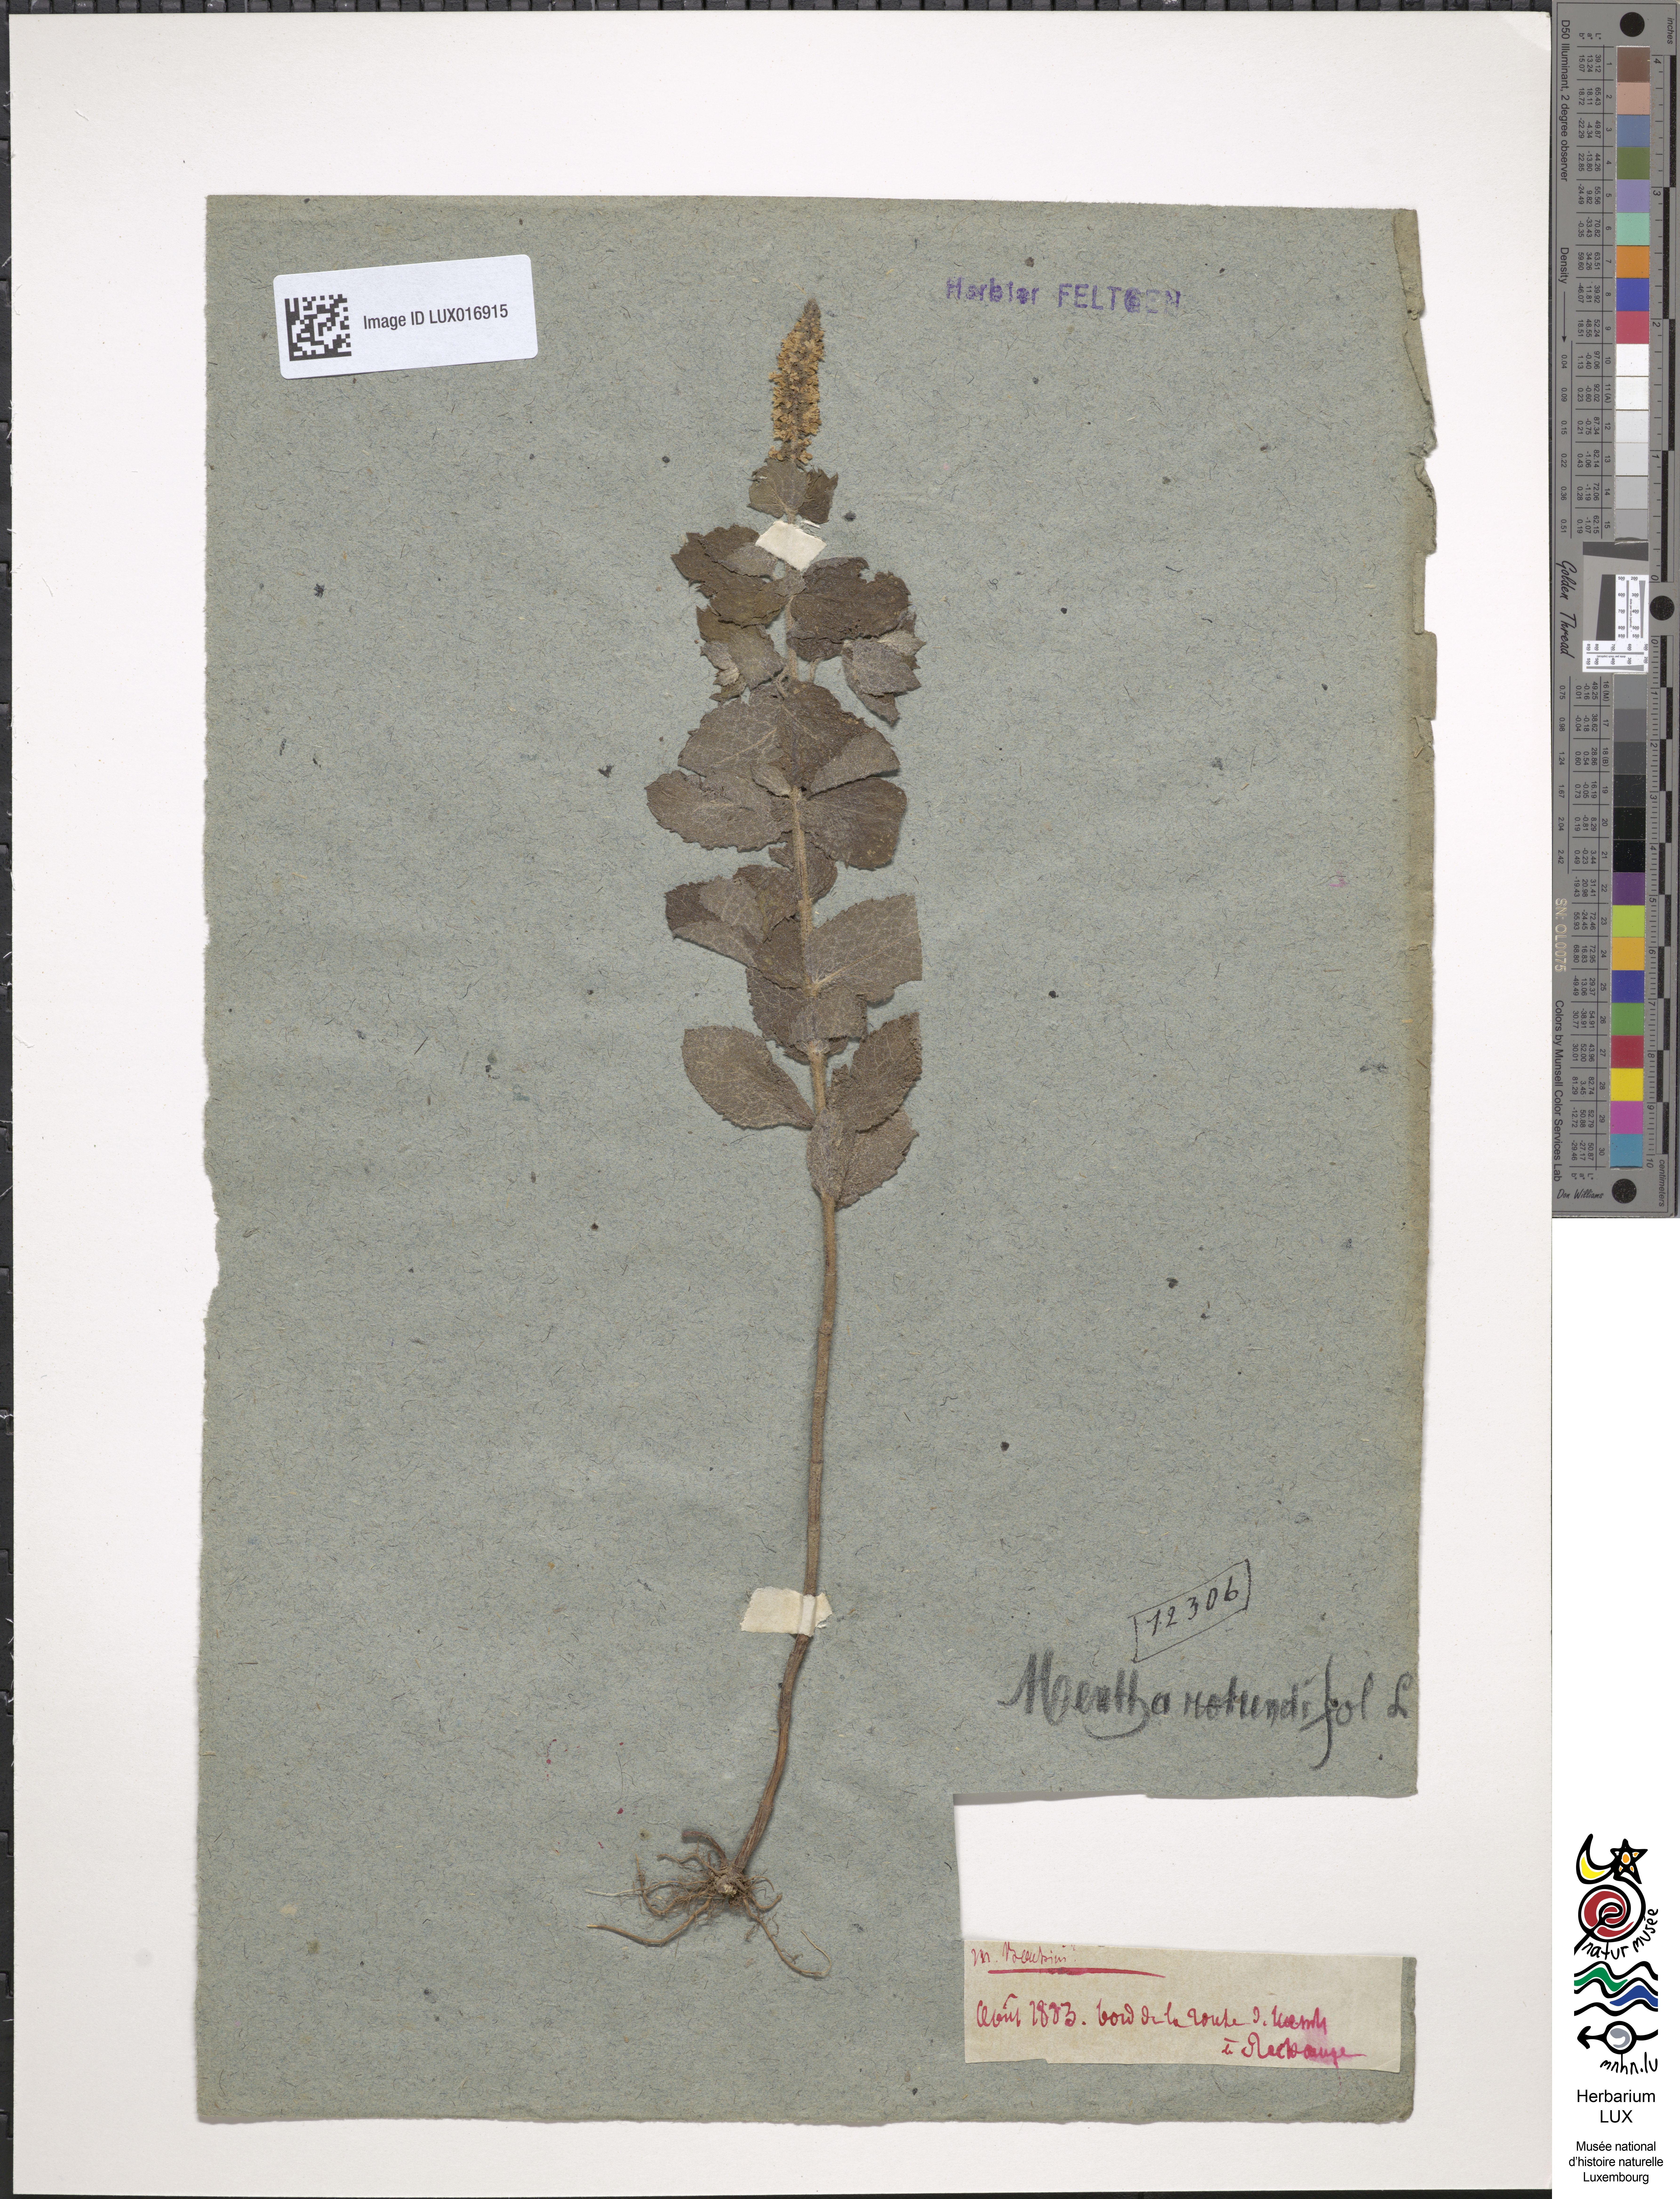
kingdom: Plantae
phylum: Tracheophyta
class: Magnoliopsida
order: Lamiales
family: Lamiaceae
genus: Mentha
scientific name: Mentha suaveolens
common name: Apple mint
